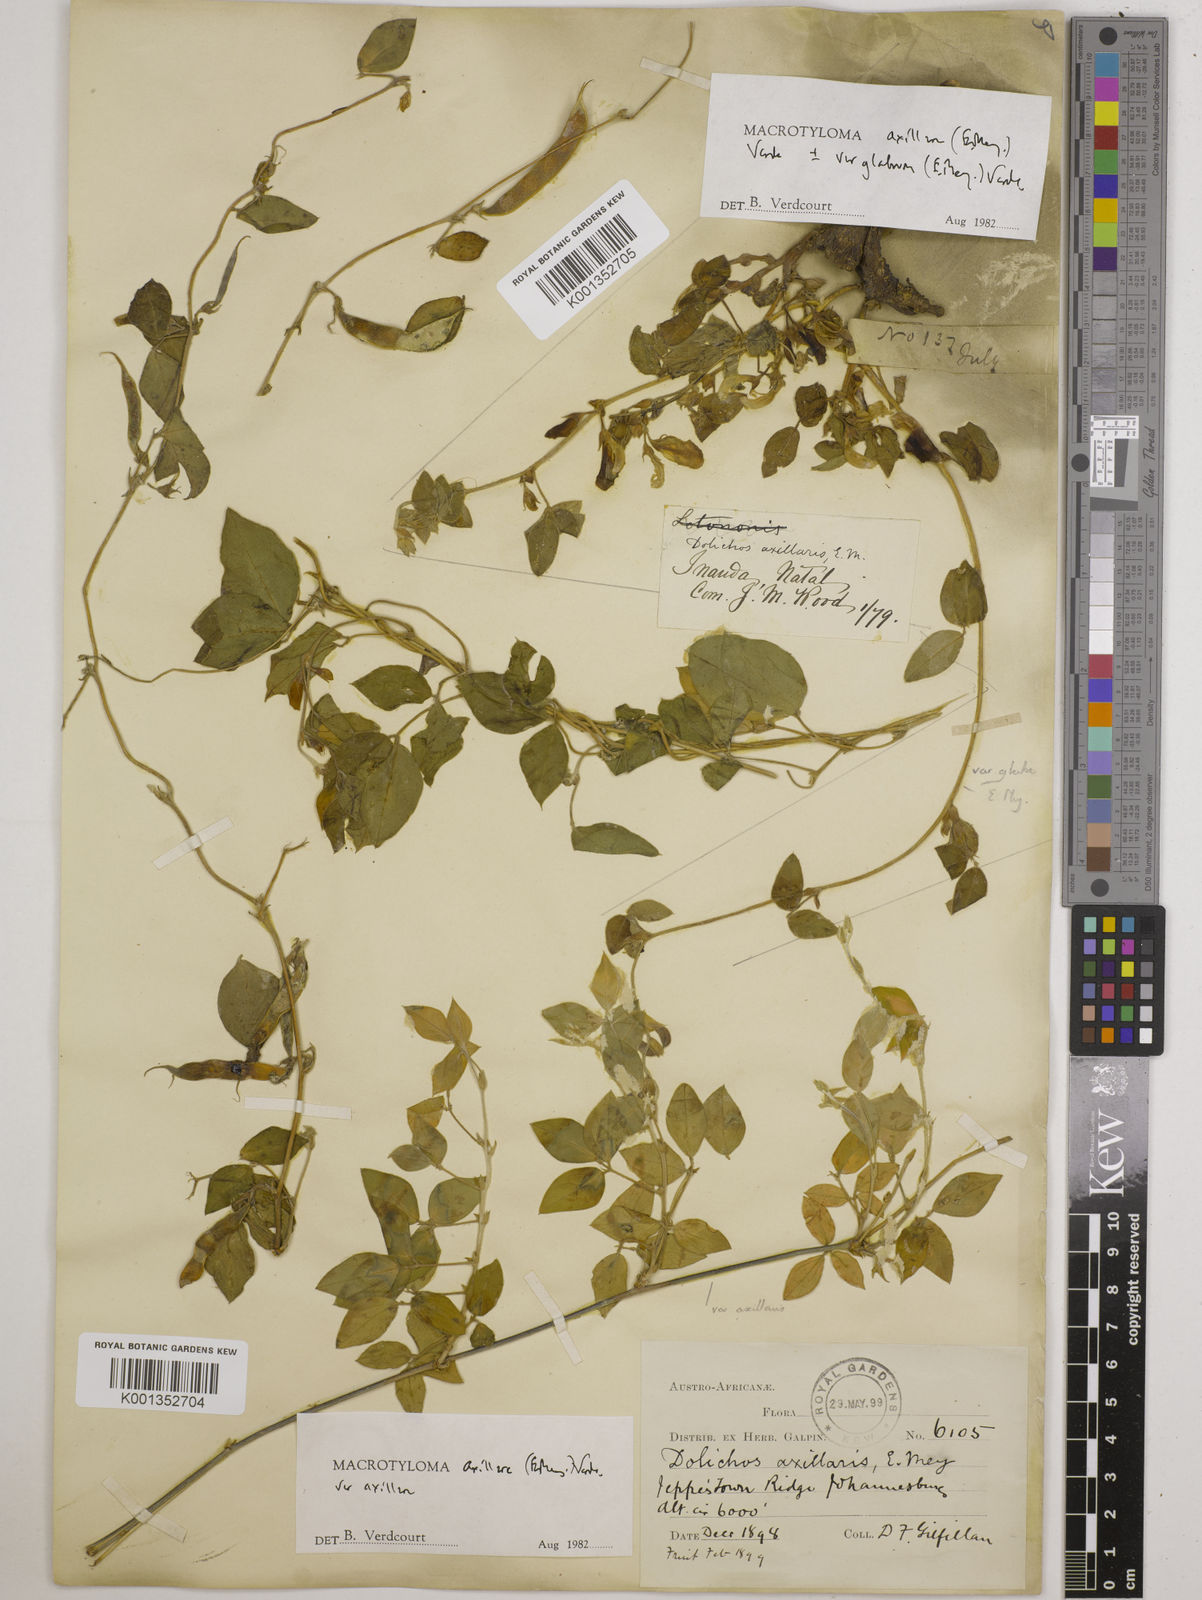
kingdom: Plantae
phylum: Tracheophyta
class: Magnoliopsida
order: Fabales
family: Fabaceae
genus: Macrotyloma
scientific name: Macrotyloma
